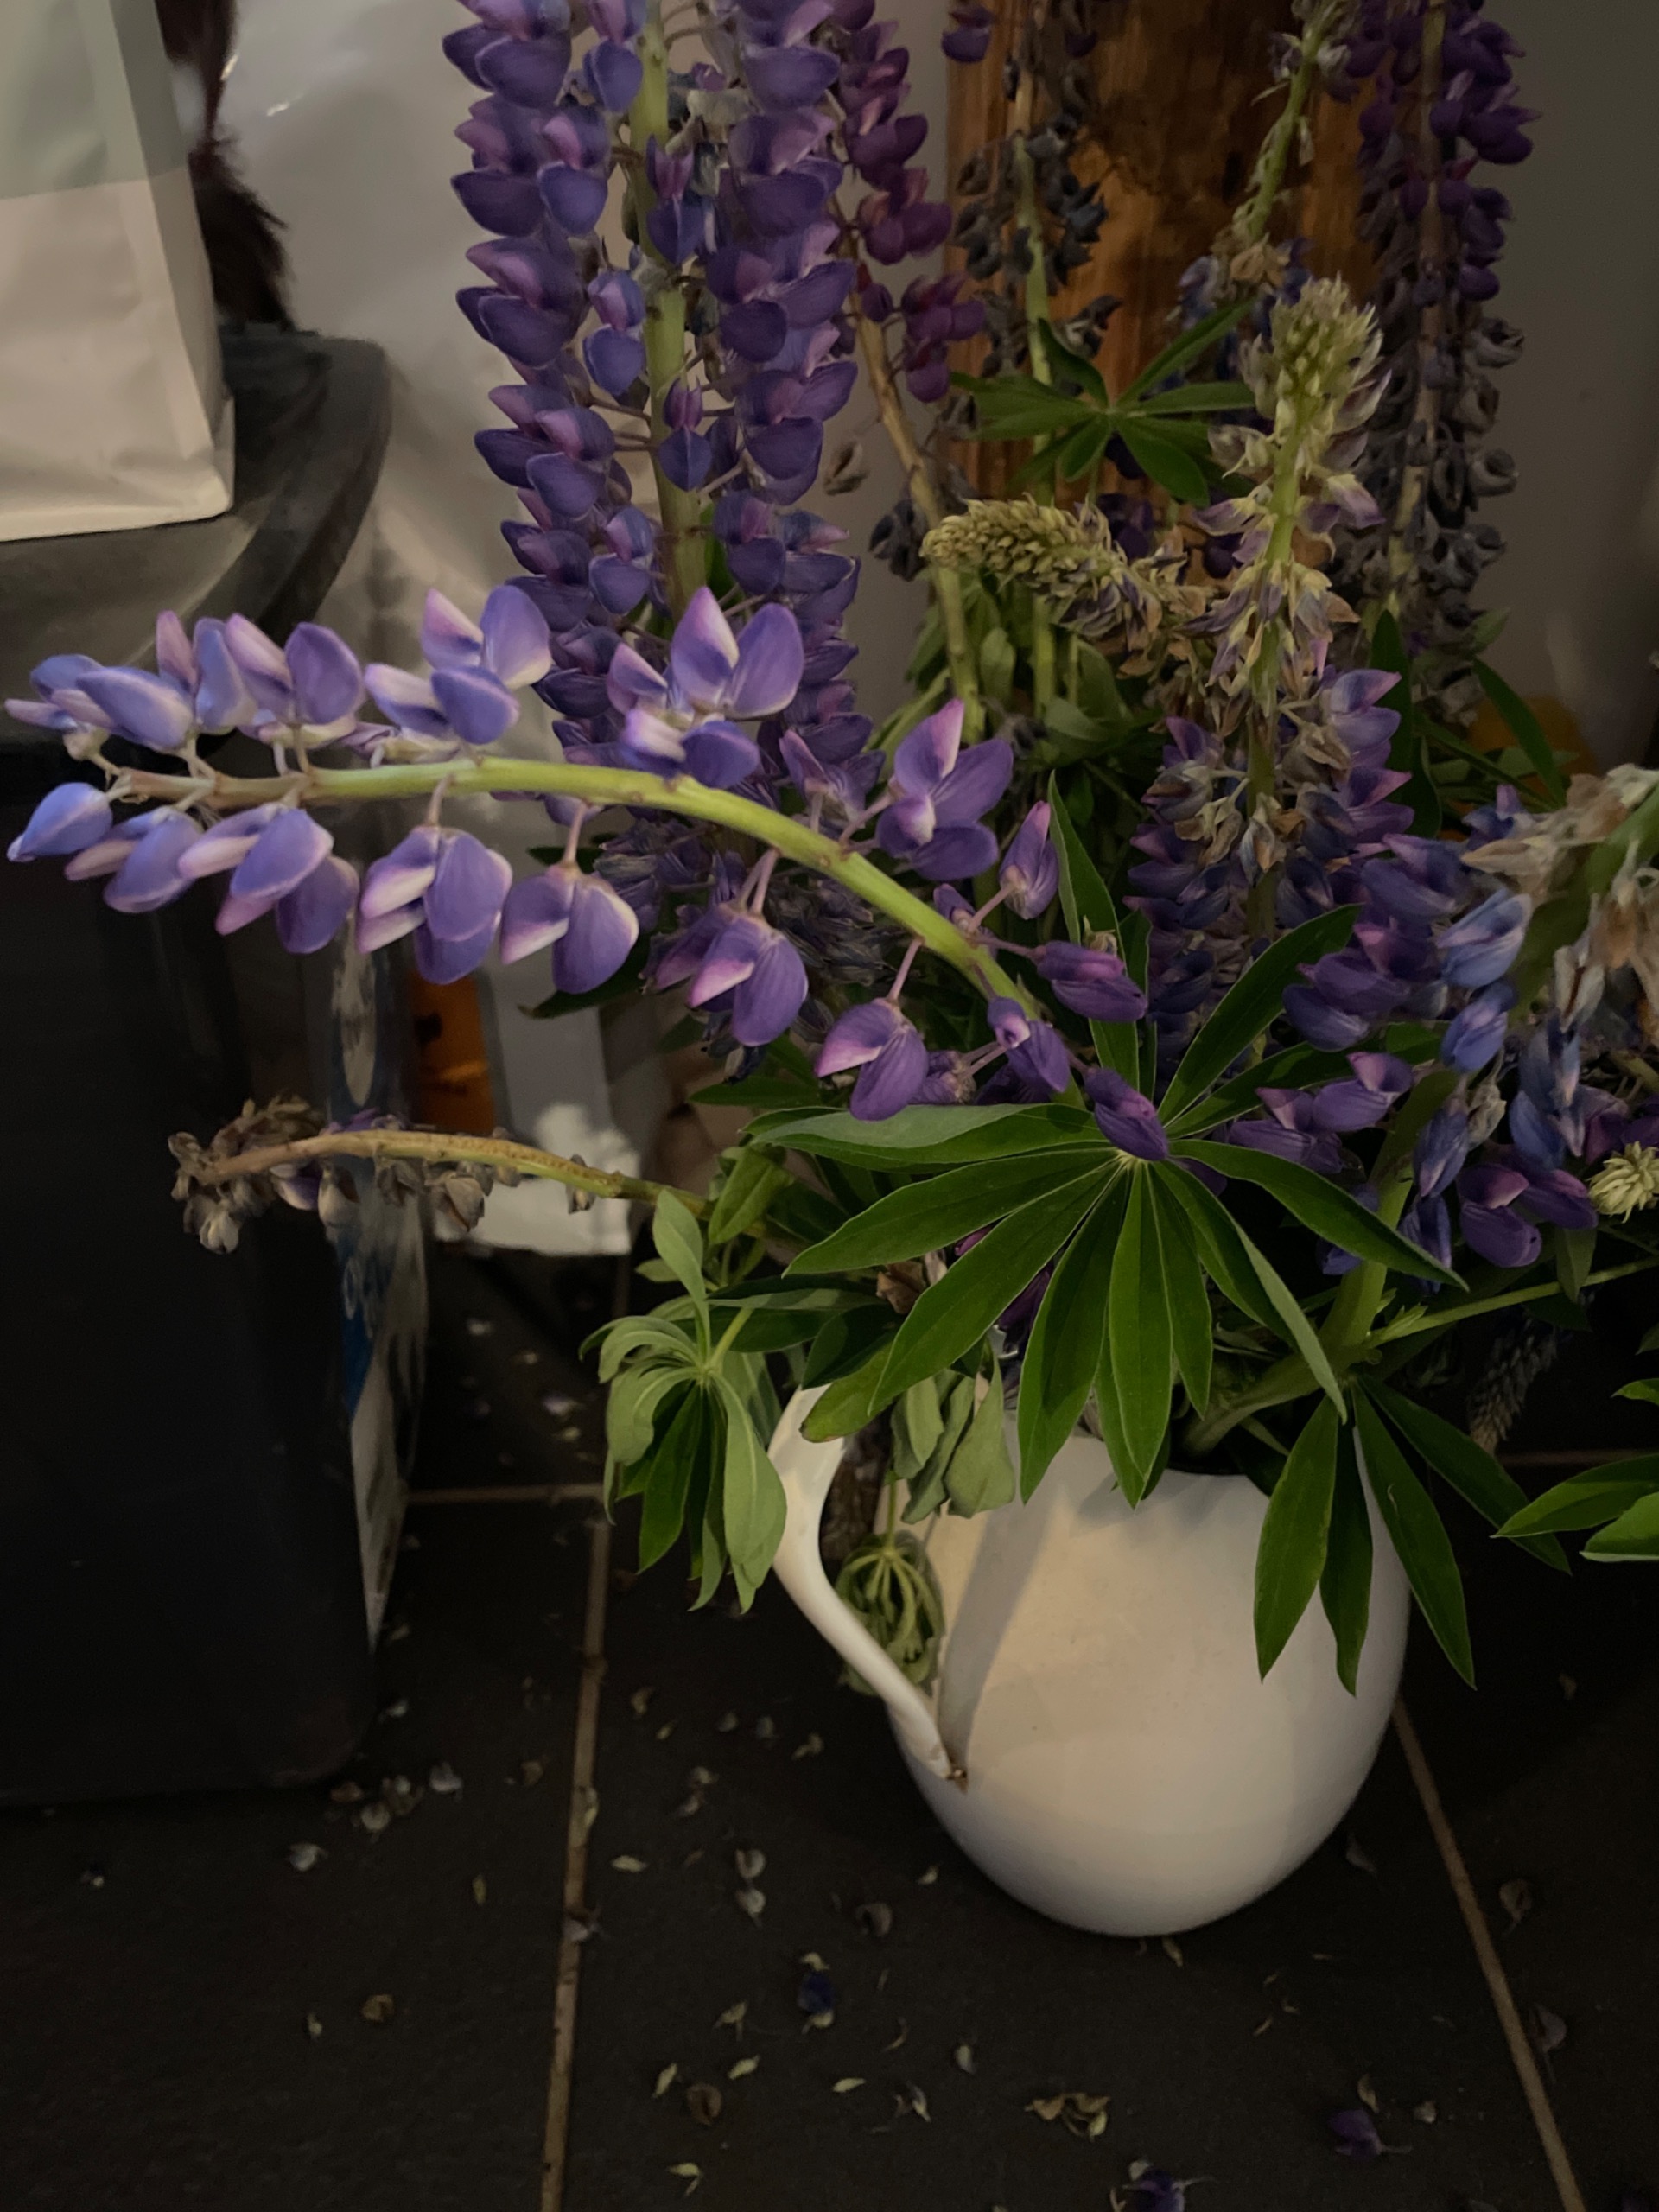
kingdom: Plantae
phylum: Tracheophyta
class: Magnoliopsida
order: Fabales
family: Fabaceae
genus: Lupinus
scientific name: Lupinus polyphyllus
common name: Mangebladet lupin
